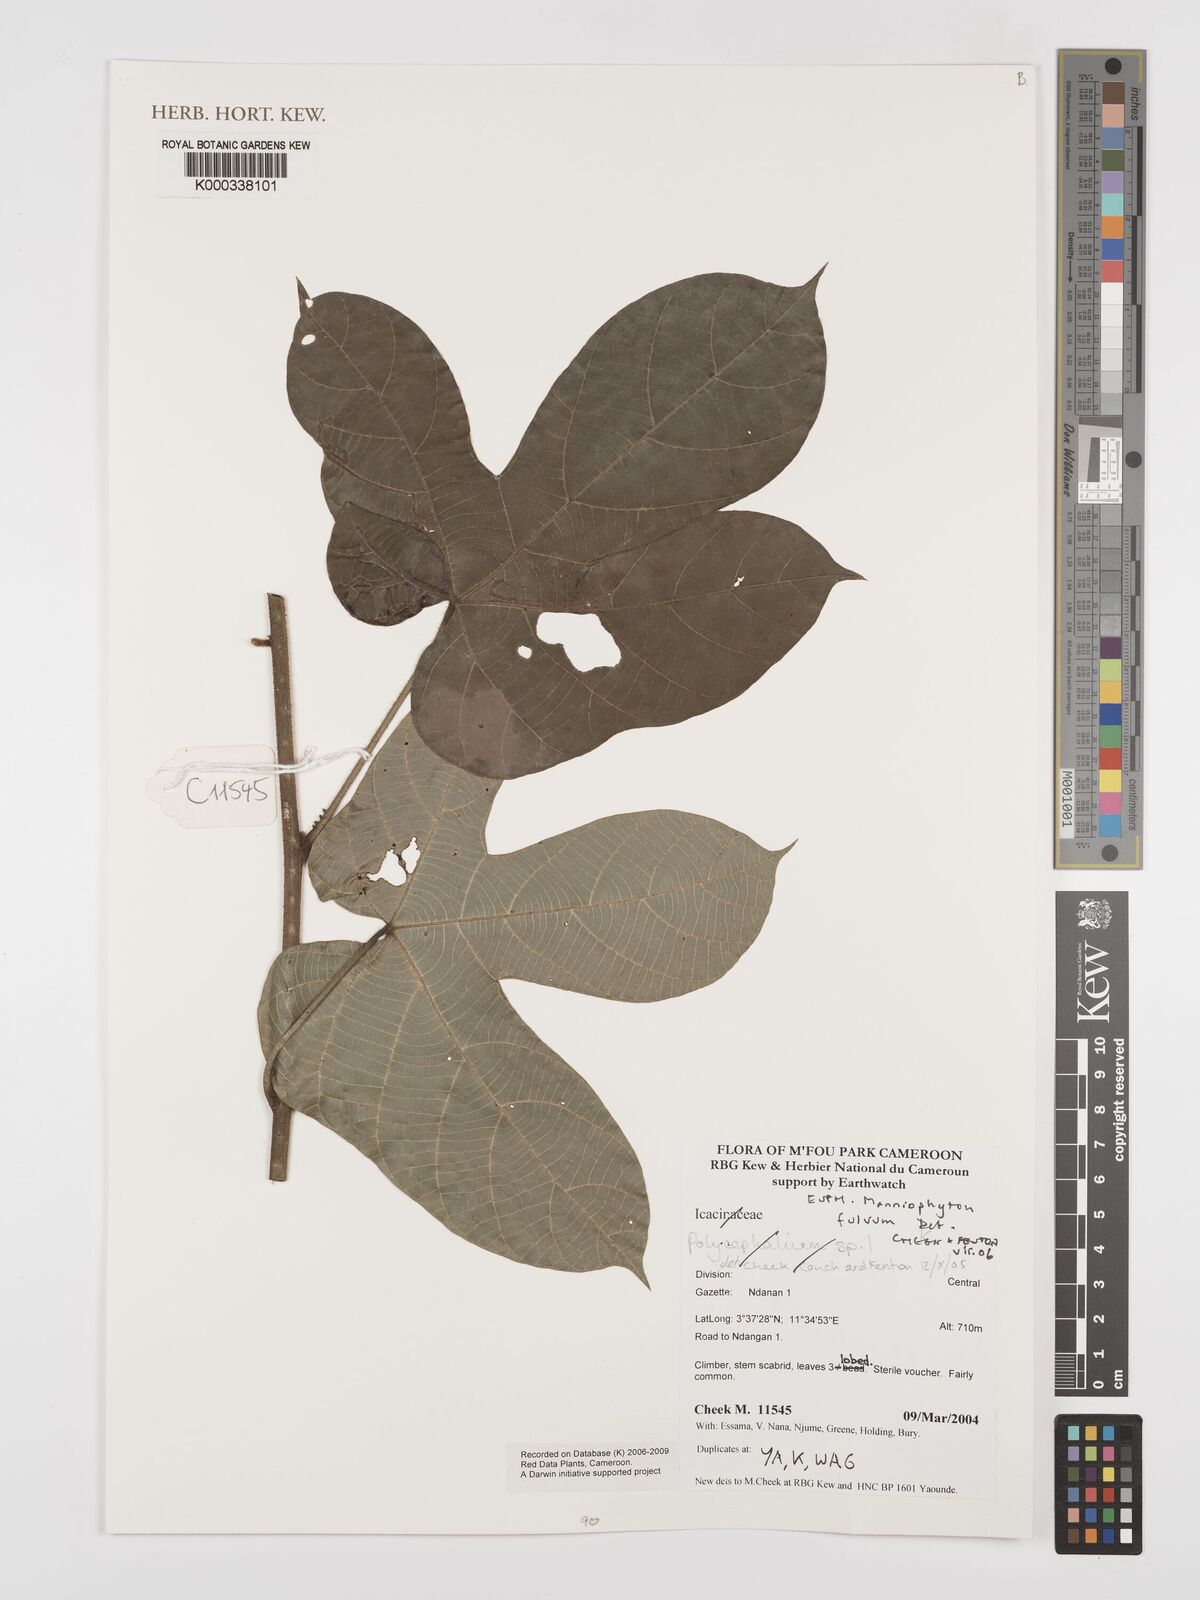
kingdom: Plantae
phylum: Tracheophyta
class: Magnoliopsida
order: Malpighiales
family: Euphorbiaceae
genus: Manniophyton
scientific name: Manniophyton
